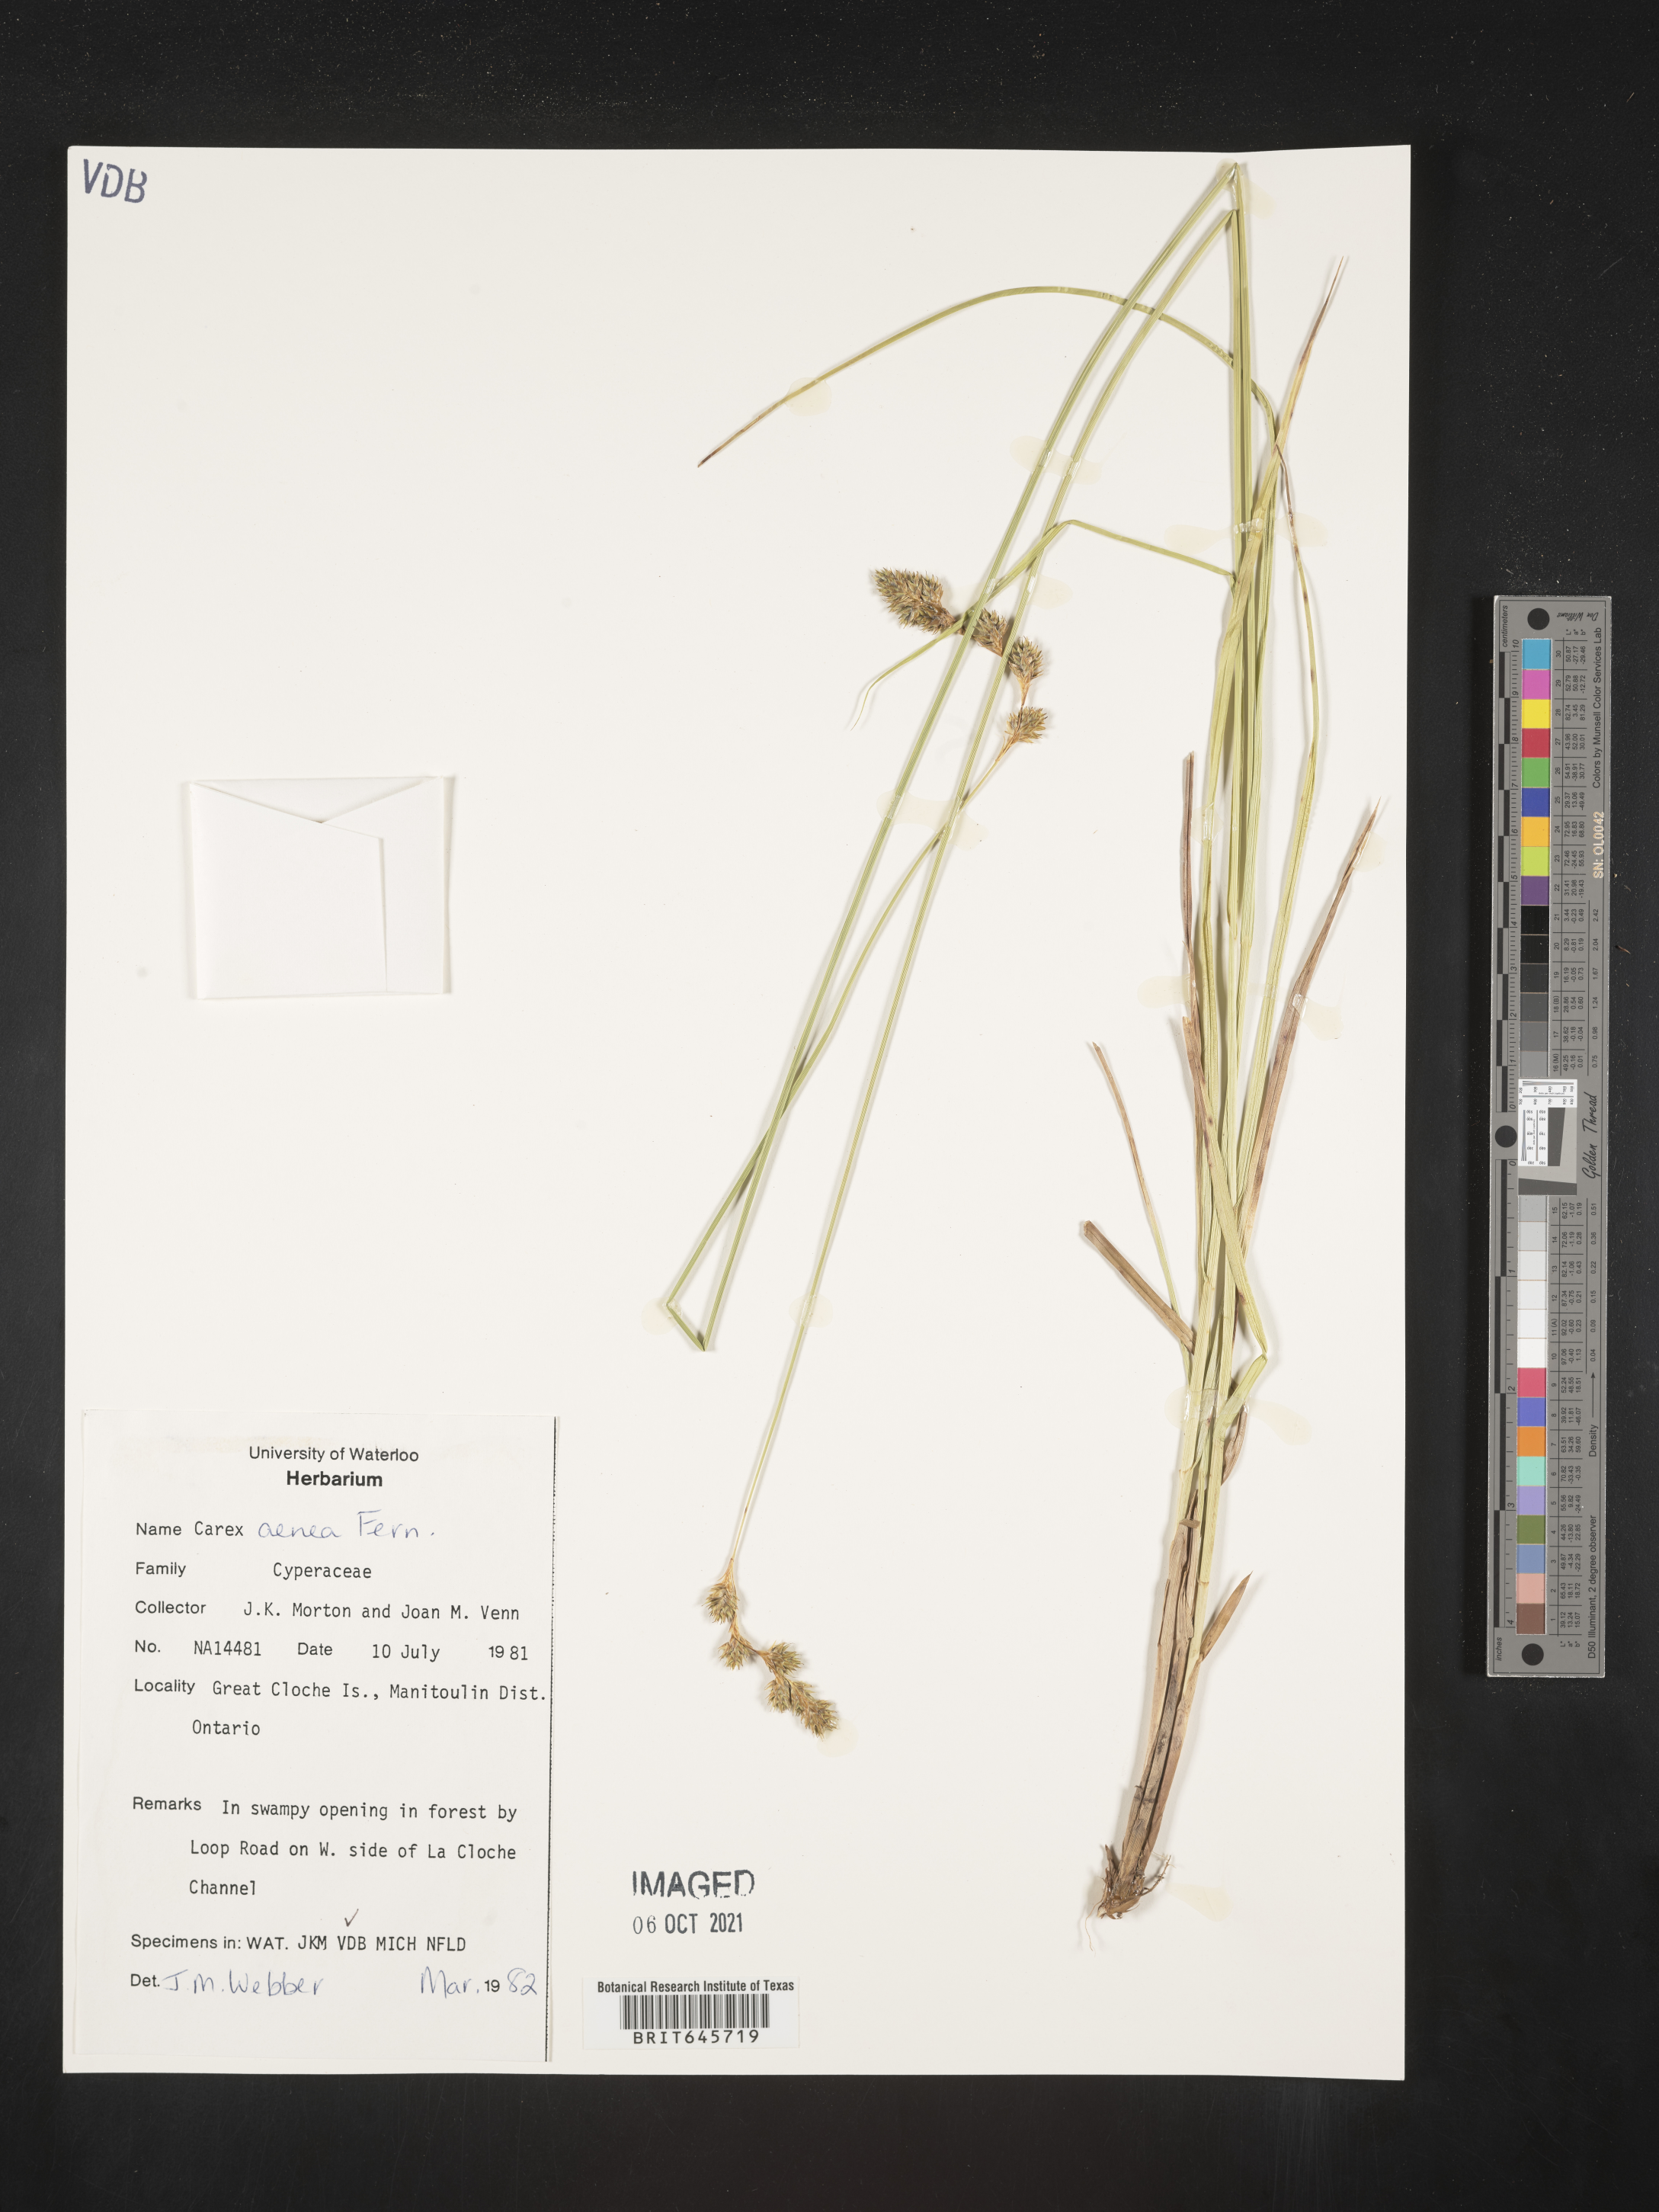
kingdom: Plantae
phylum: Tracheophyta
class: Liliopsida
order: Poales
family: Cyperaceae
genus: Carex
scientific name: Carex foenea
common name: Bronze sedge
